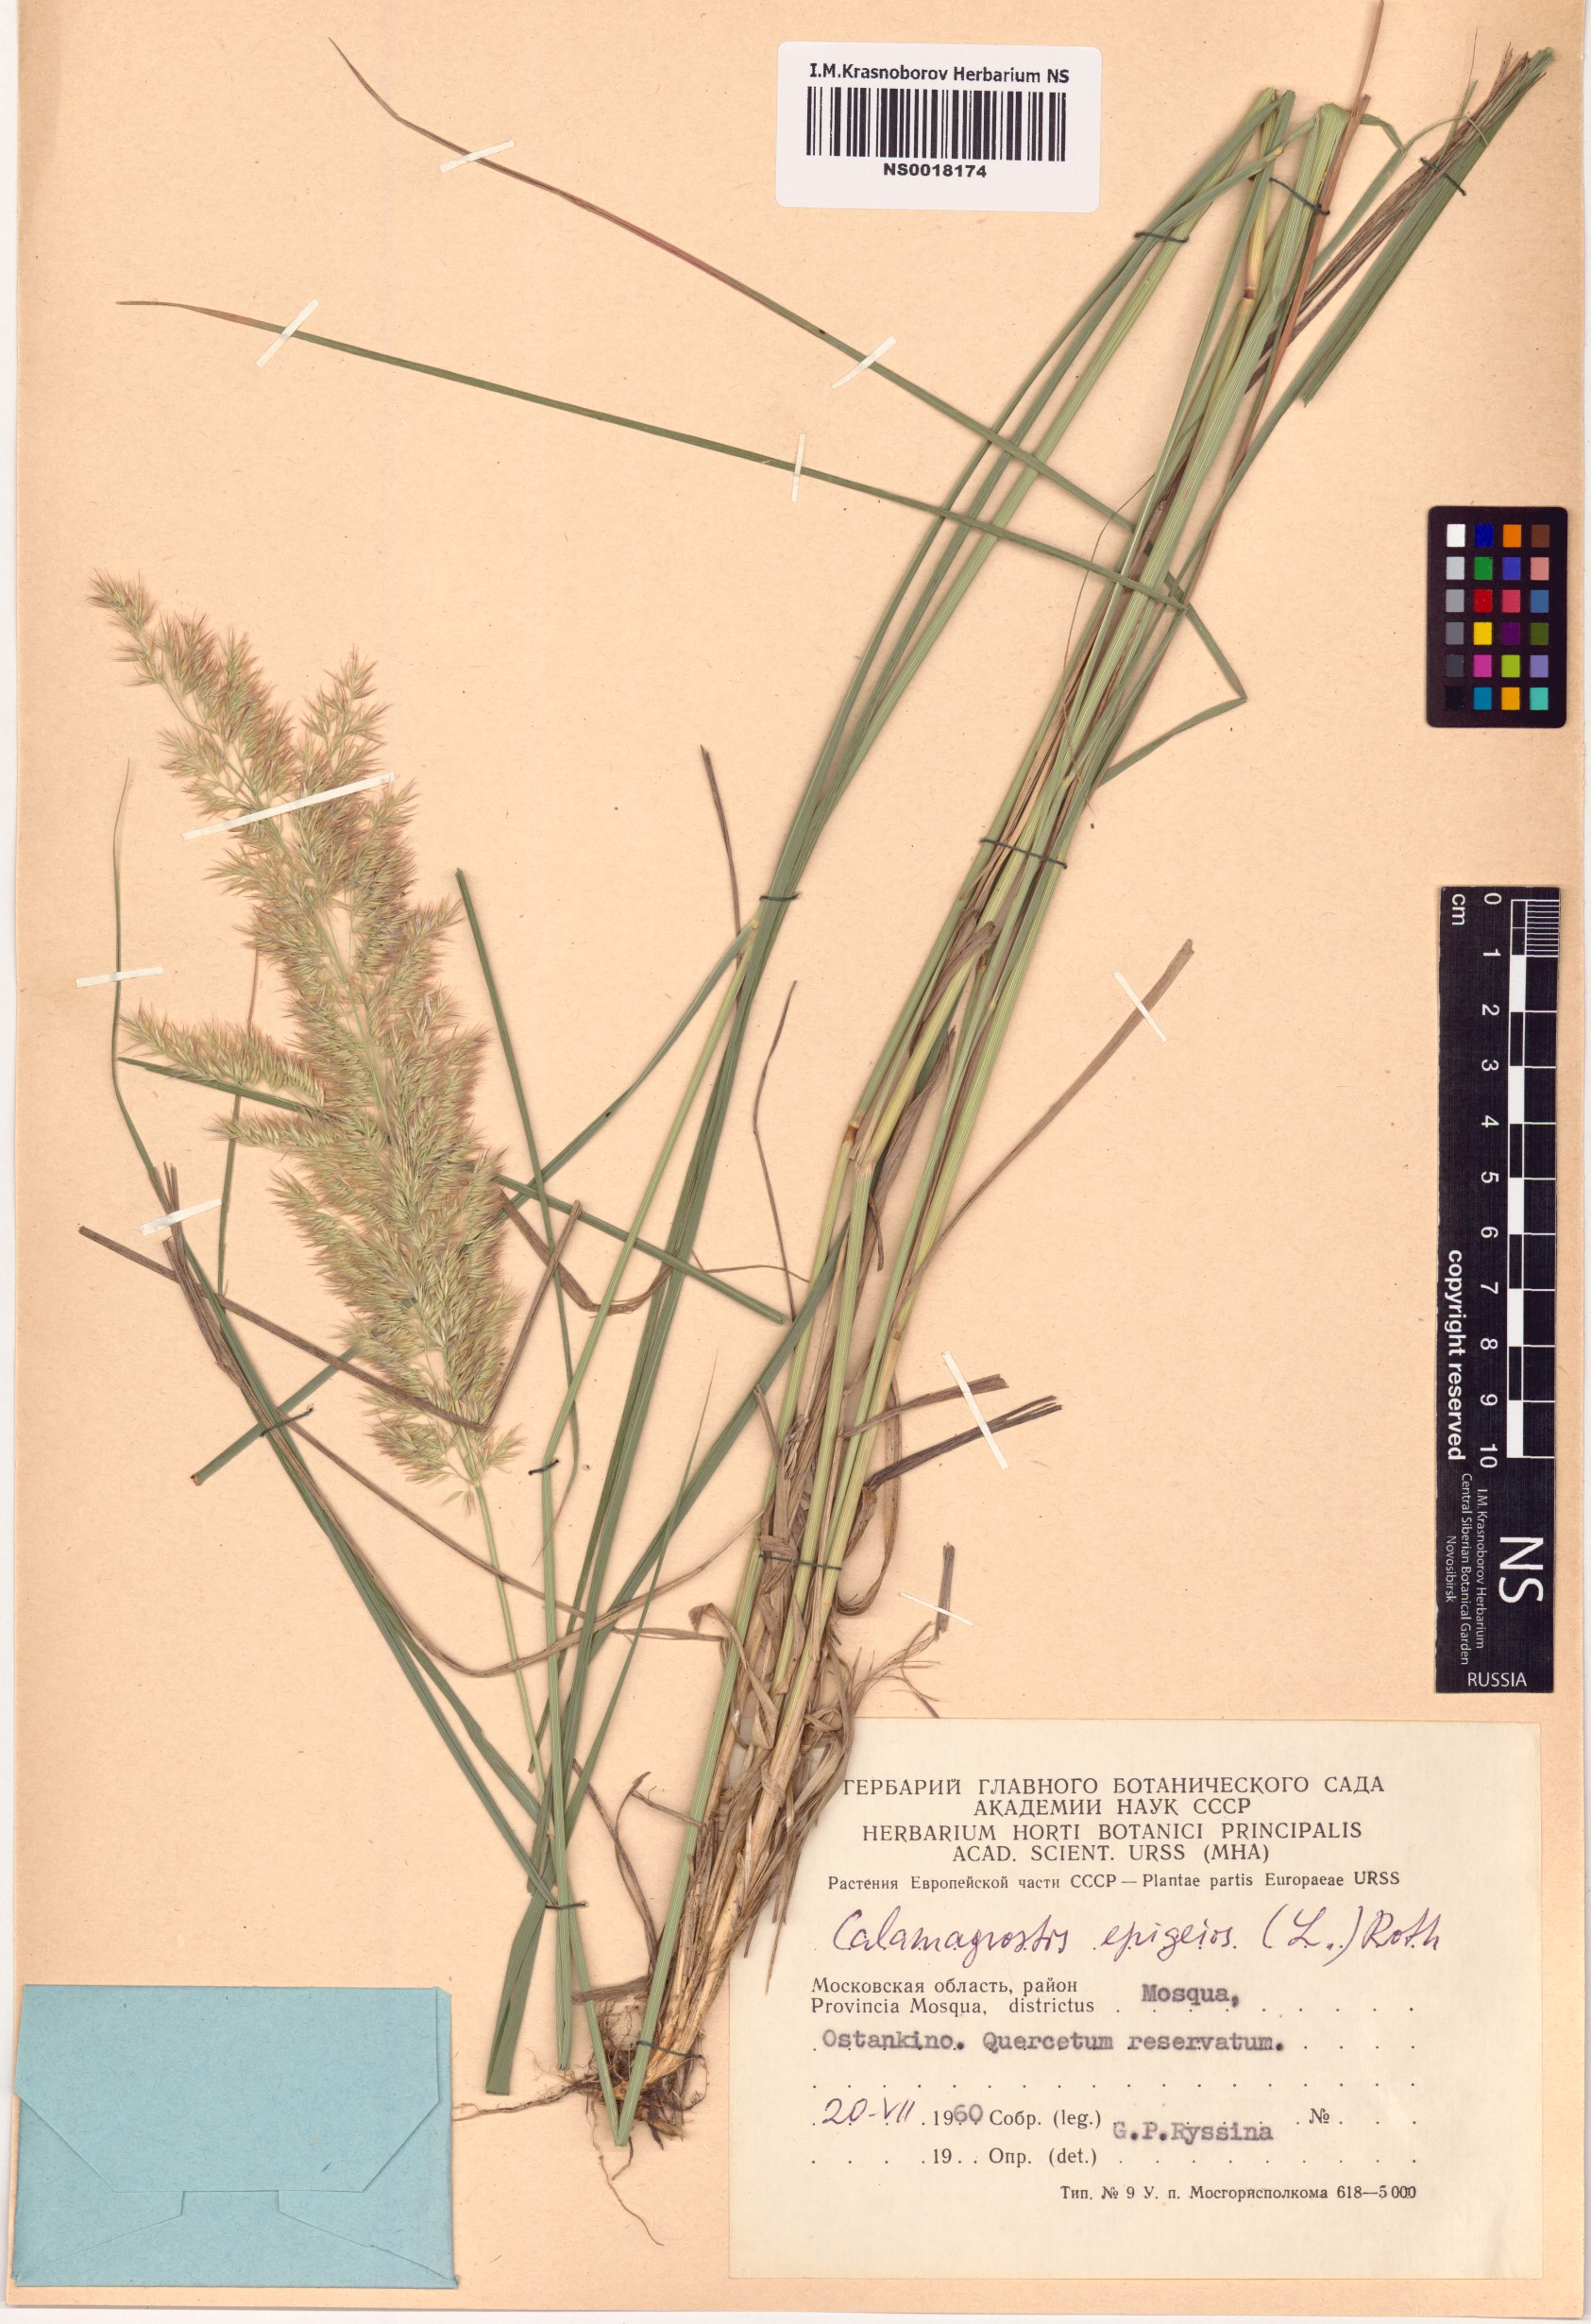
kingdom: Plantae
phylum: Tracheophyta
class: Liliopsida
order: Poales
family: Poaceae
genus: Calamagrostis
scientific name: Calamagrostis epigejos
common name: Wood small-reed
